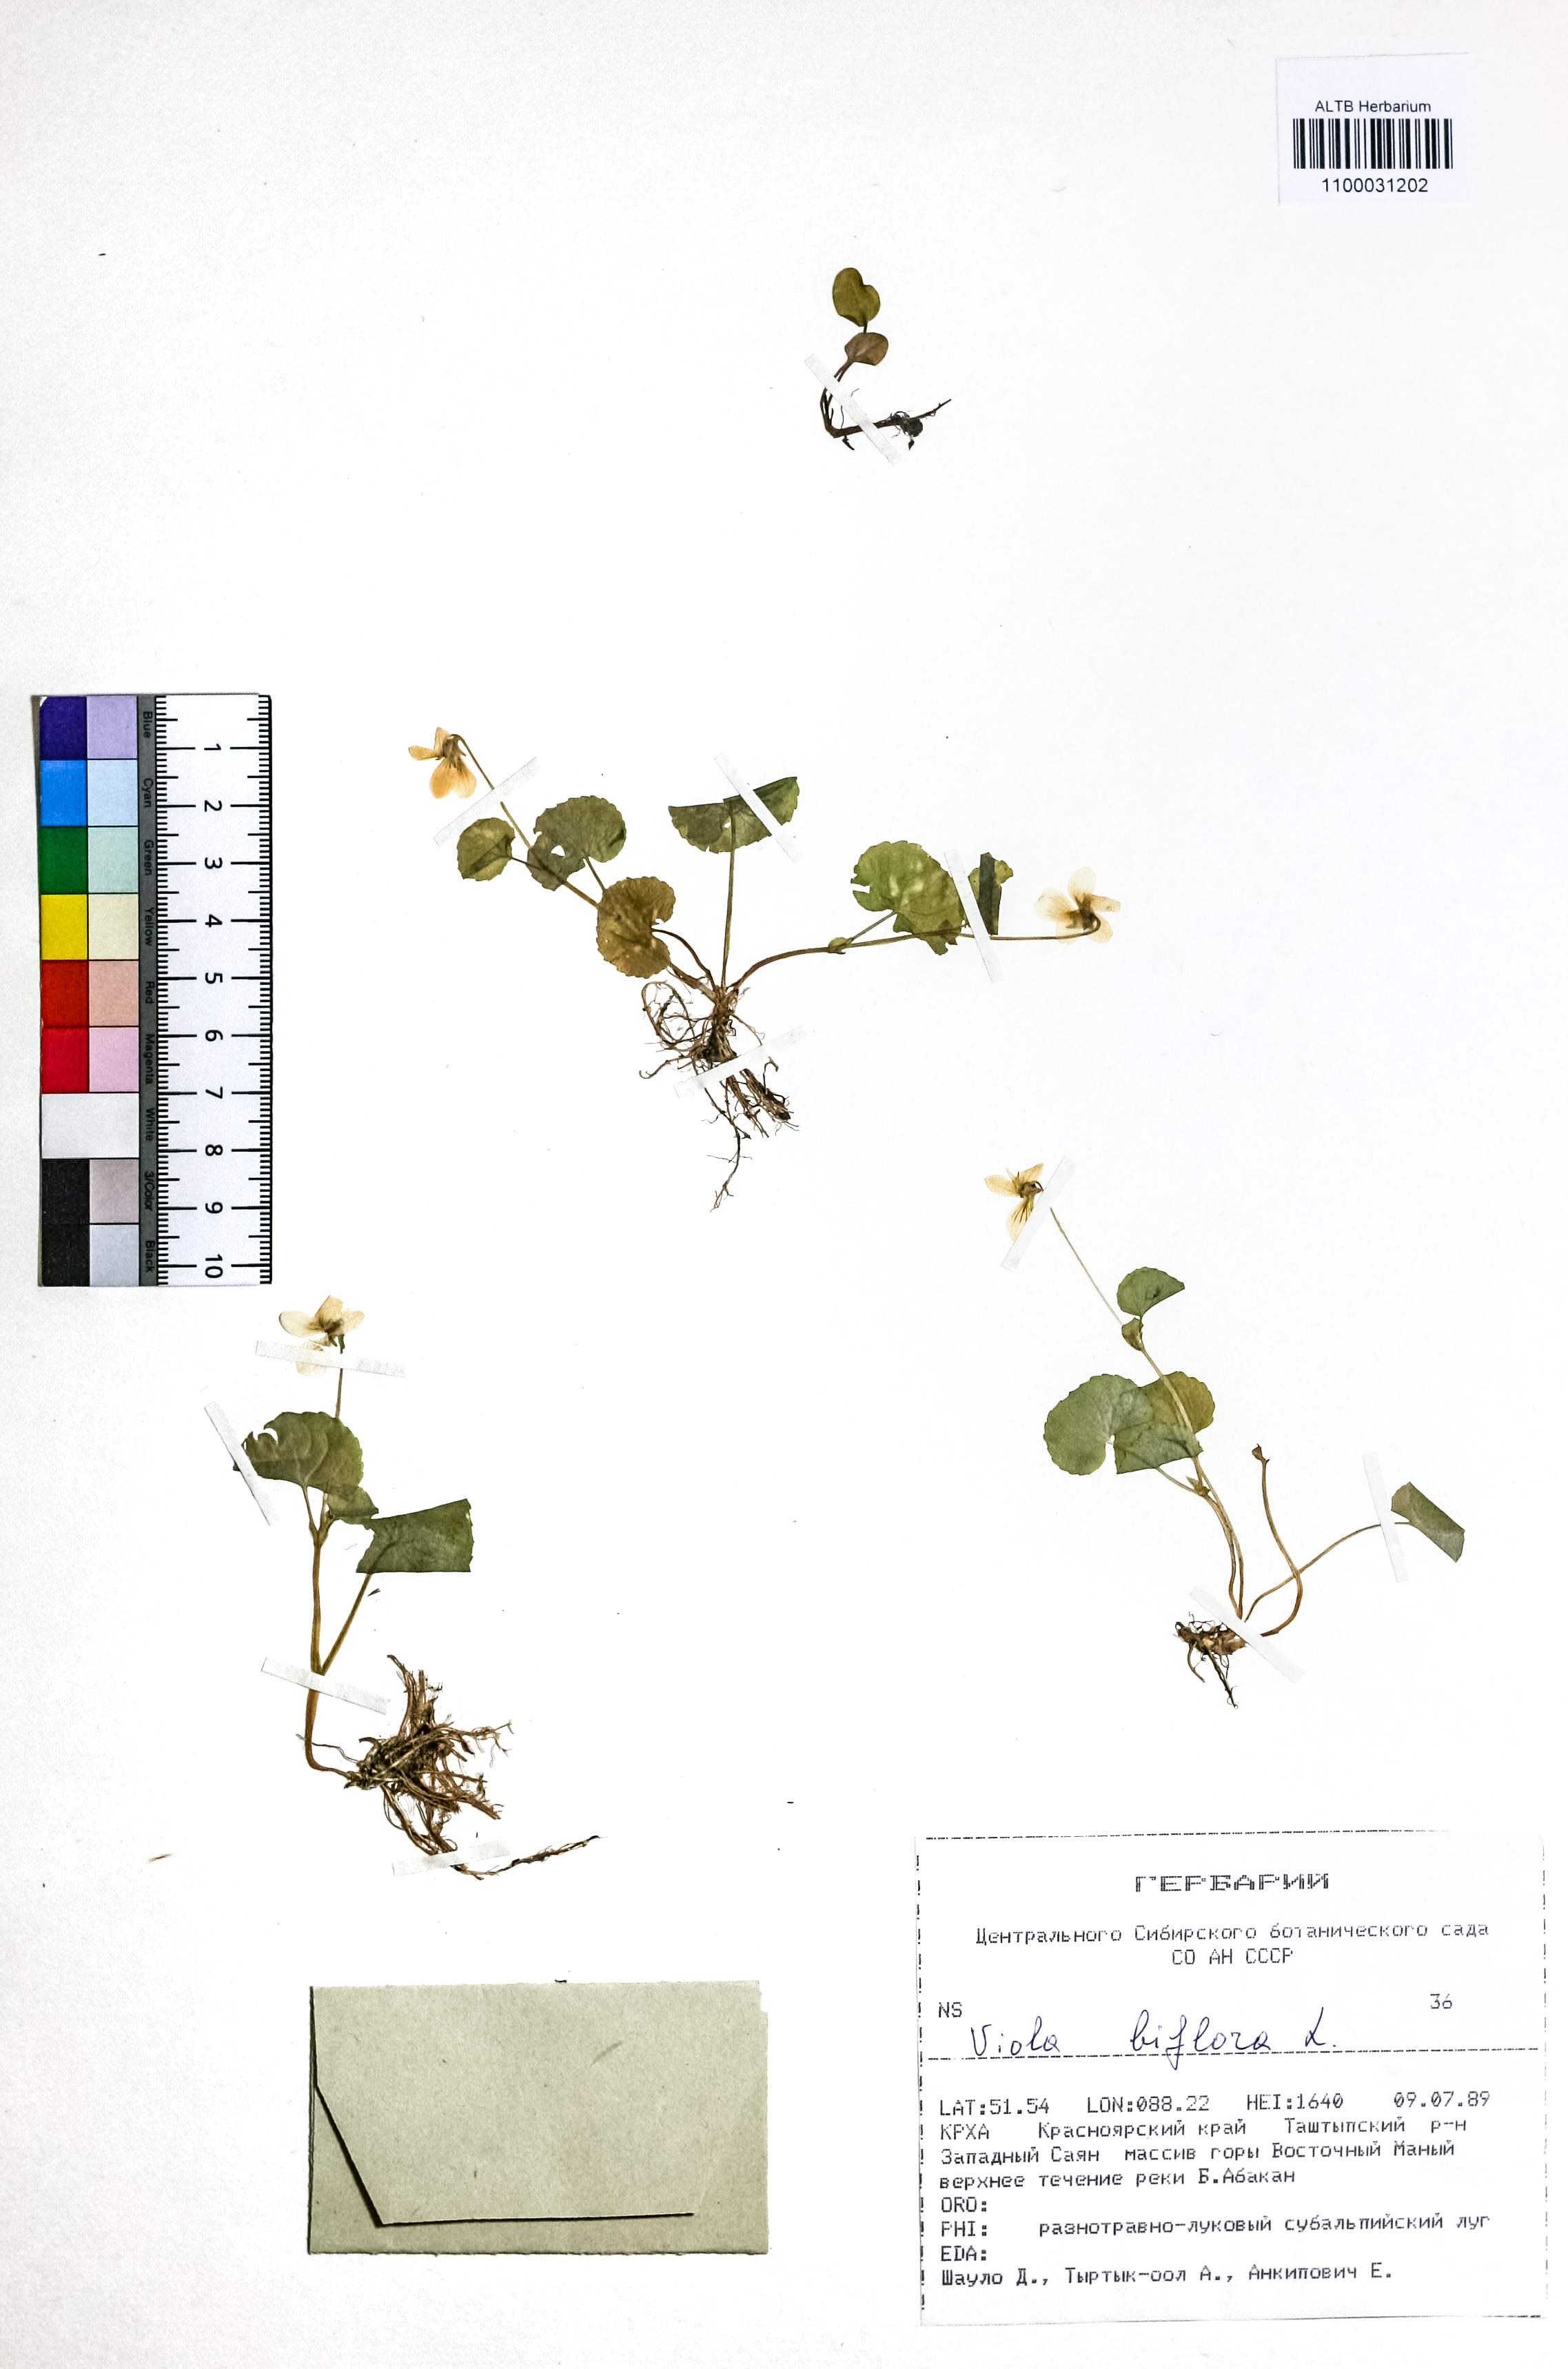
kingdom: Plantae
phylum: Tracheophyta
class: Magnoliopsida
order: Malpighiales
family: Violaceae
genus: Viola
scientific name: Viola biflora
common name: Alpine yellow violet
